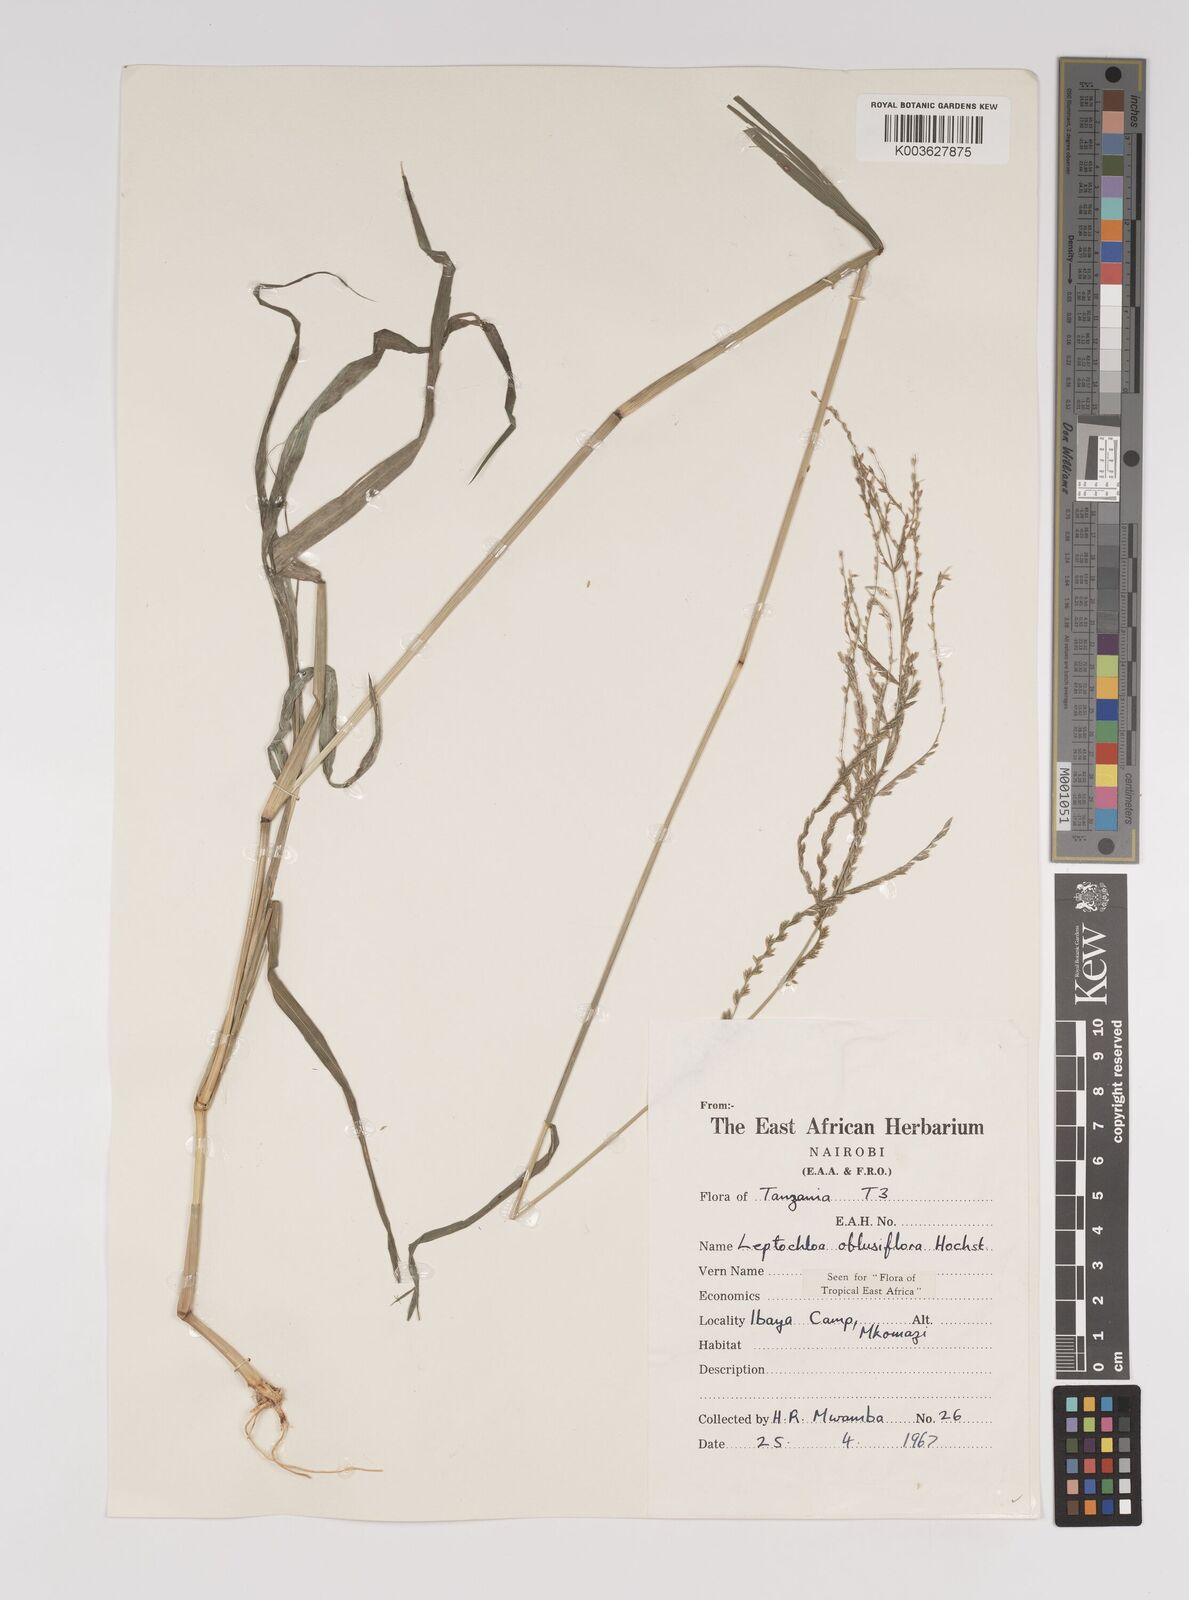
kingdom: Plantae
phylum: Tracheophyta
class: Liliopsida
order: Poales
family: Poaceae
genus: Disakisperma
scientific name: Disakisperma obtusiflorum
